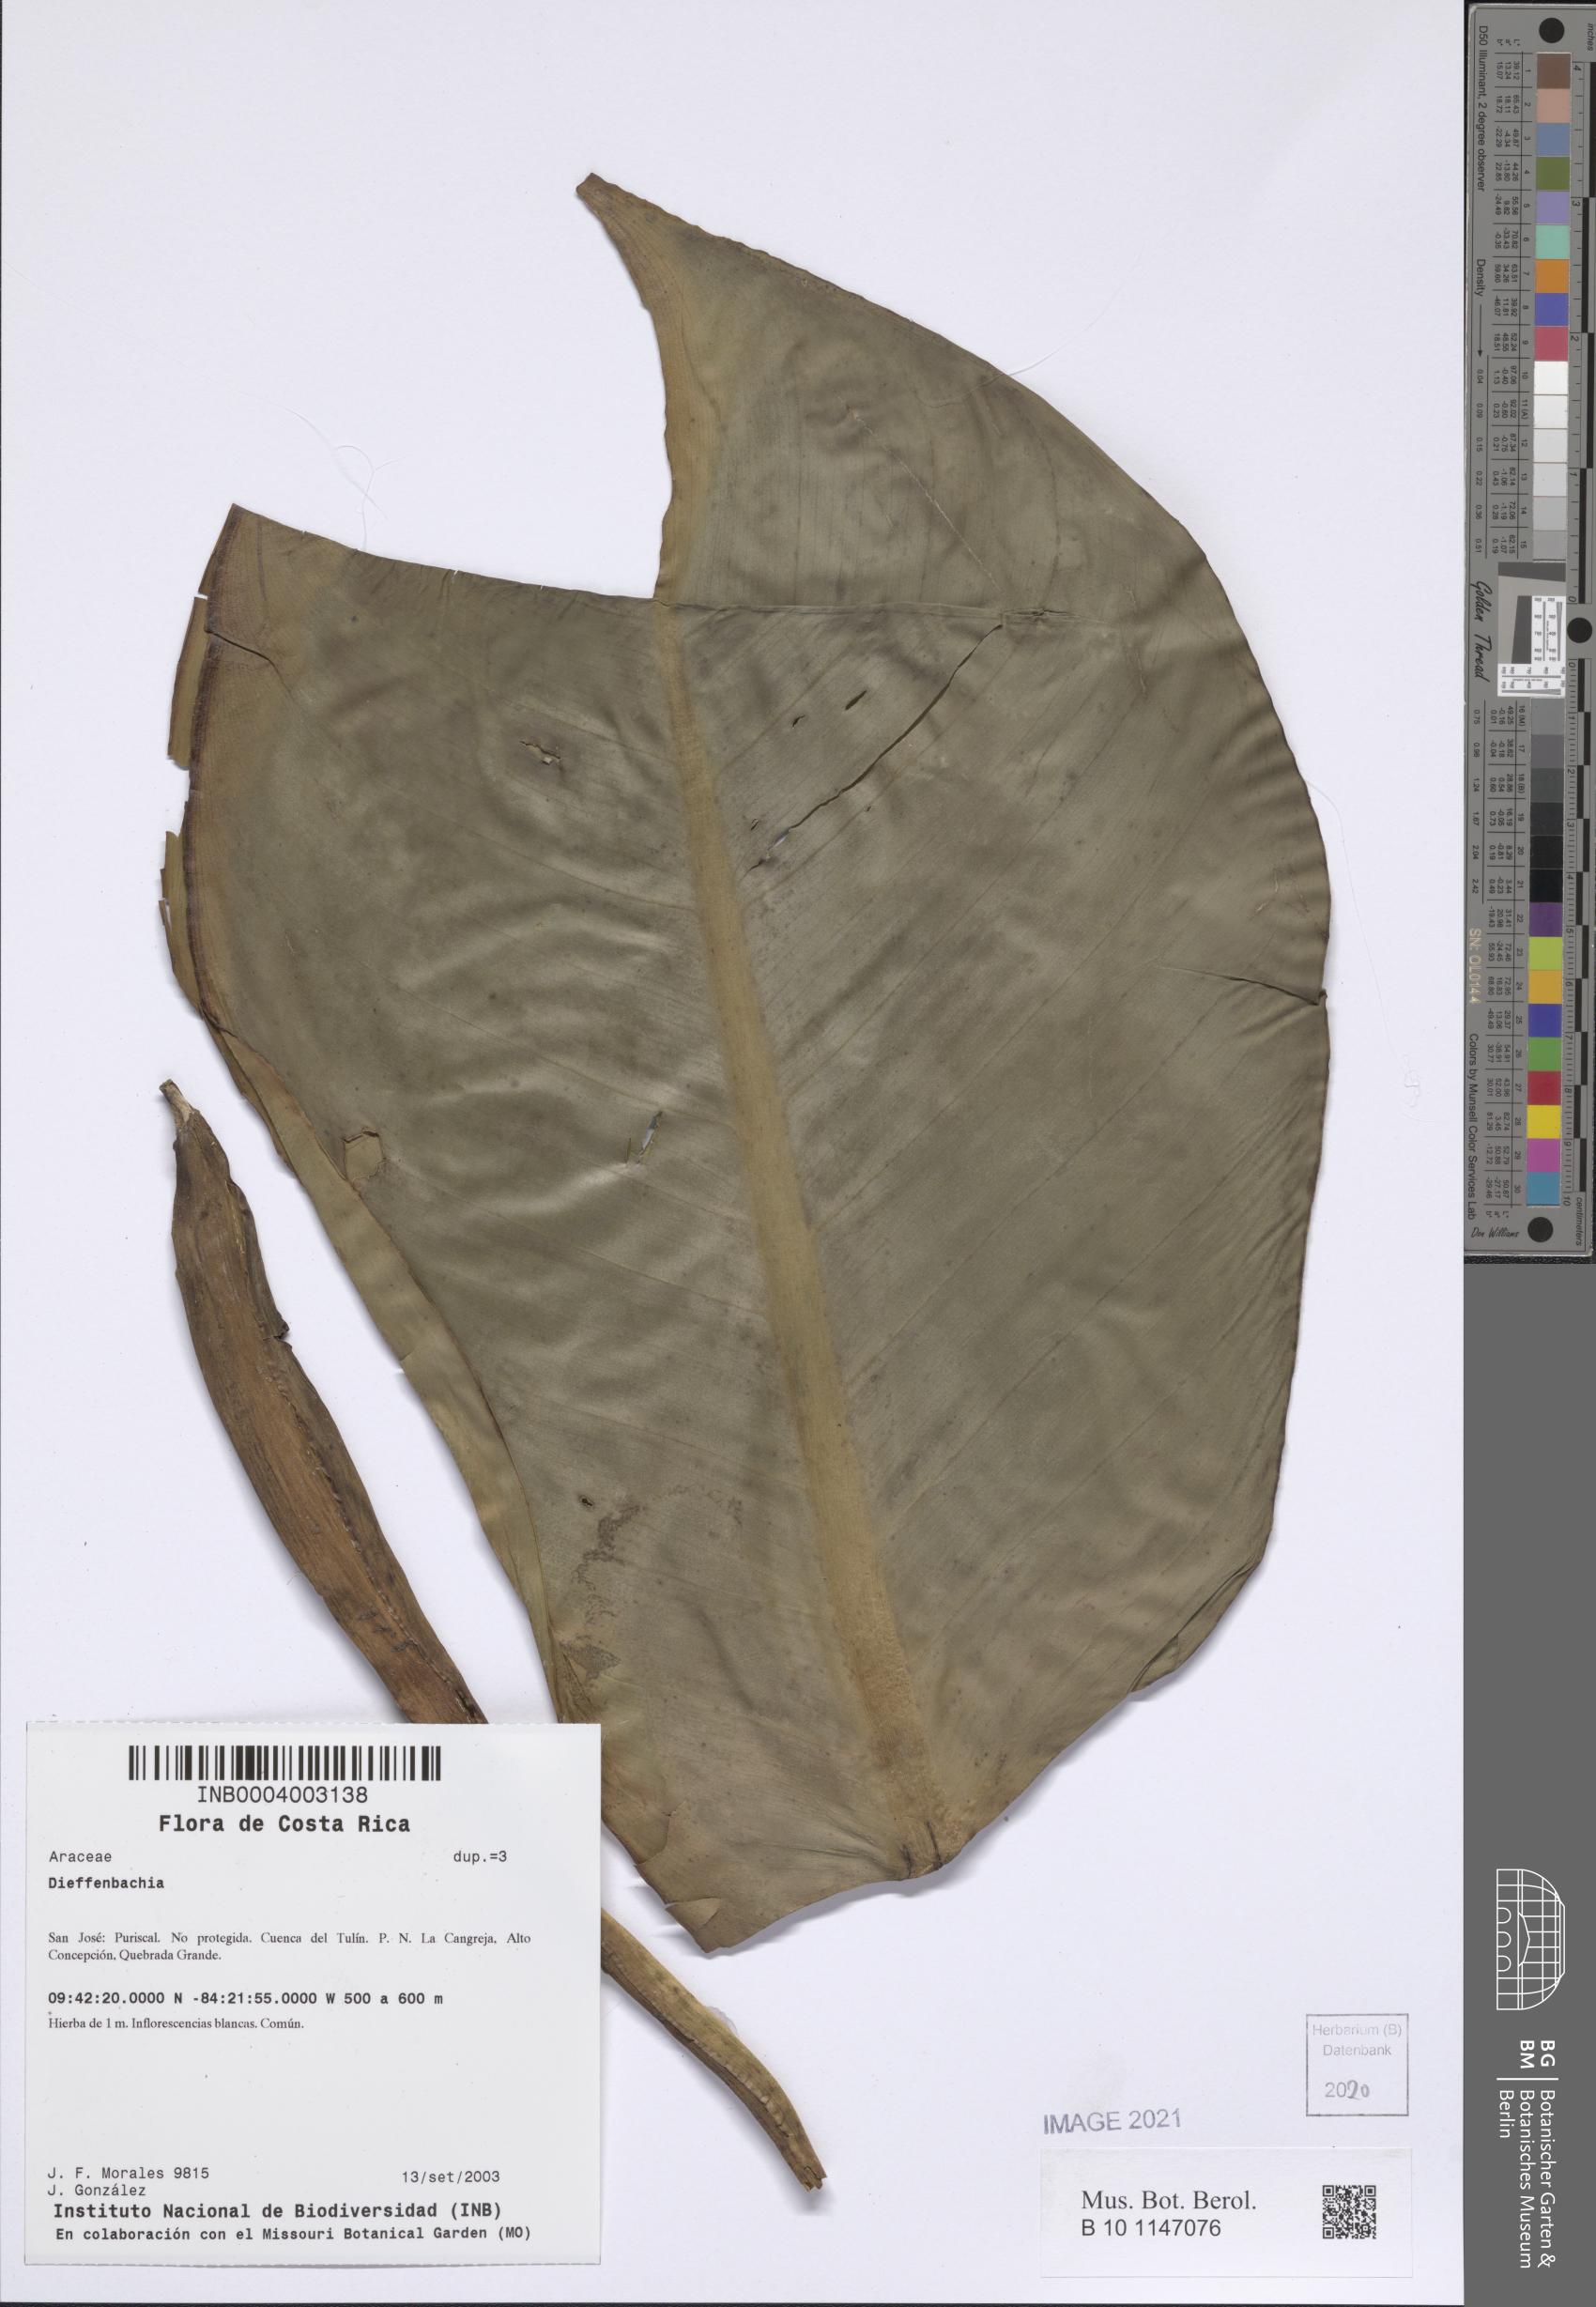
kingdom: Plantae
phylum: Tracheophyta
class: Liliopsida
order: Alismatales
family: Araceae
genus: Dieffenbachia
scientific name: Dieffenbachia
